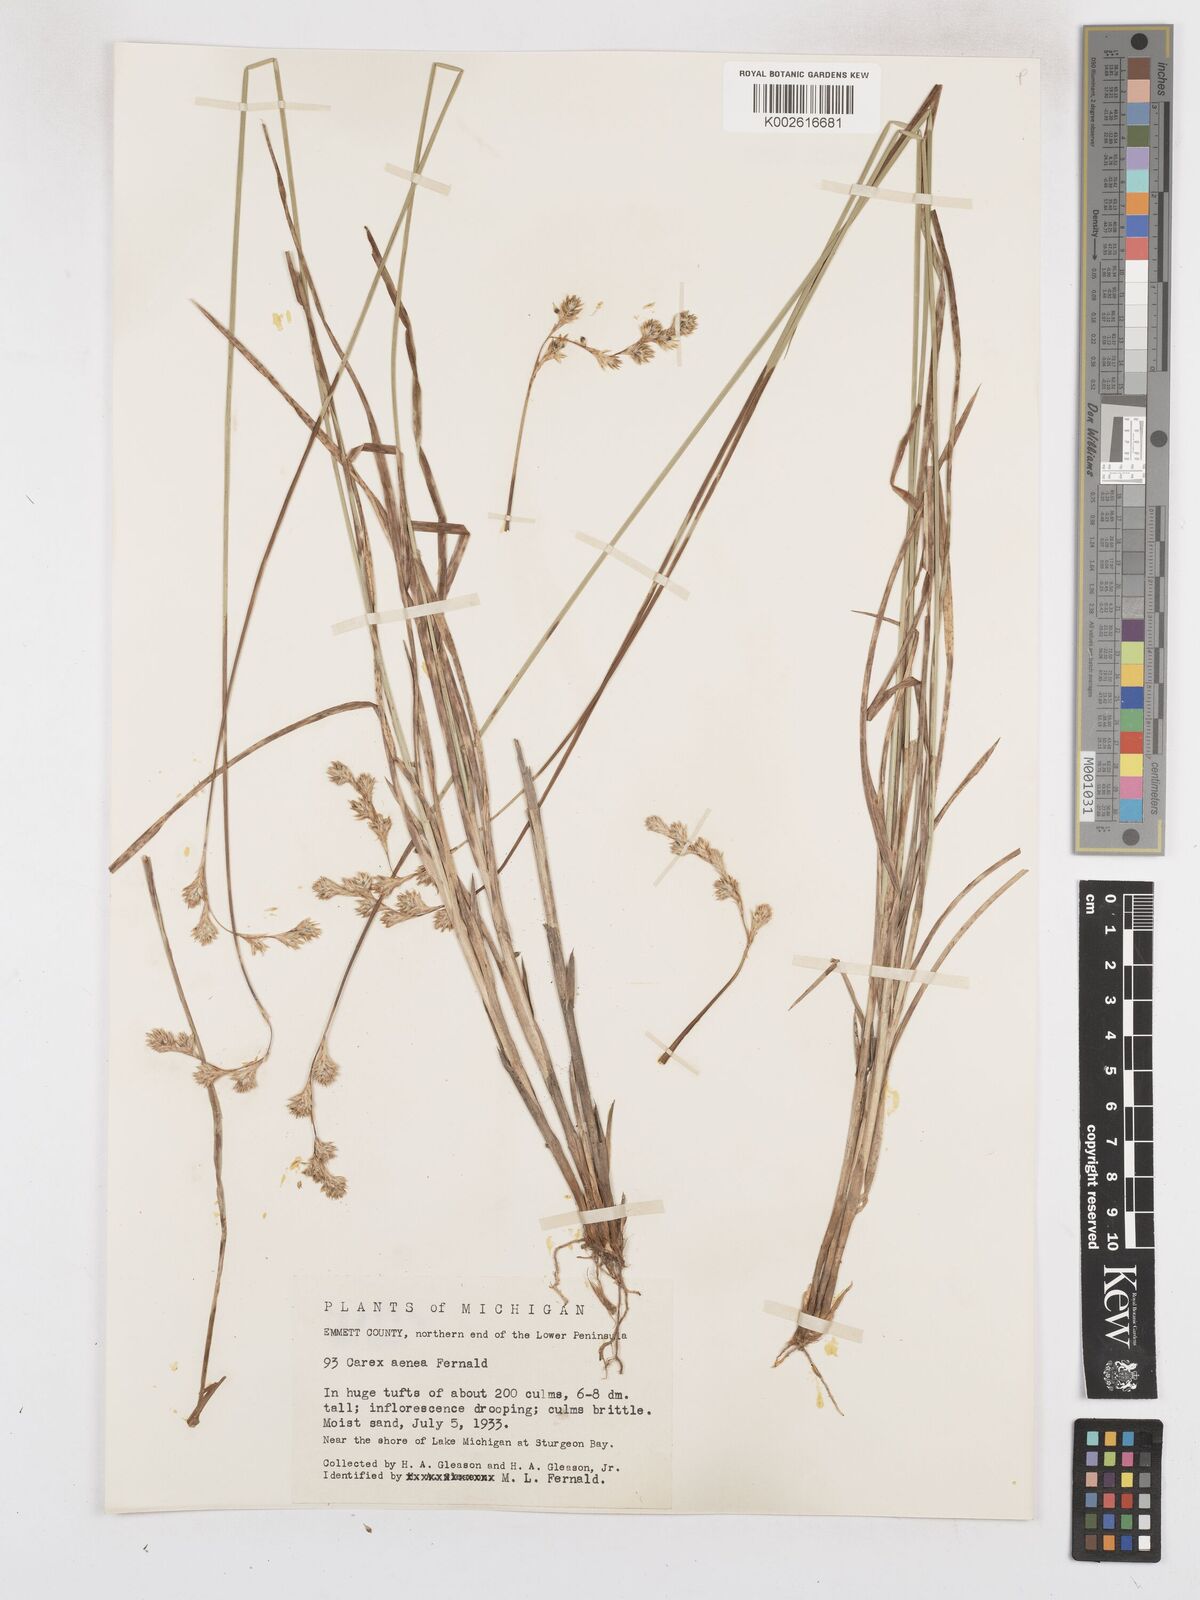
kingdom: Plantae
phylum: Tracheophyta
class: Liliopsida
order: Poales
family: Cyperaceae
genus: Carex
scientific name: Carex foenea
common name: Bronze sedge
